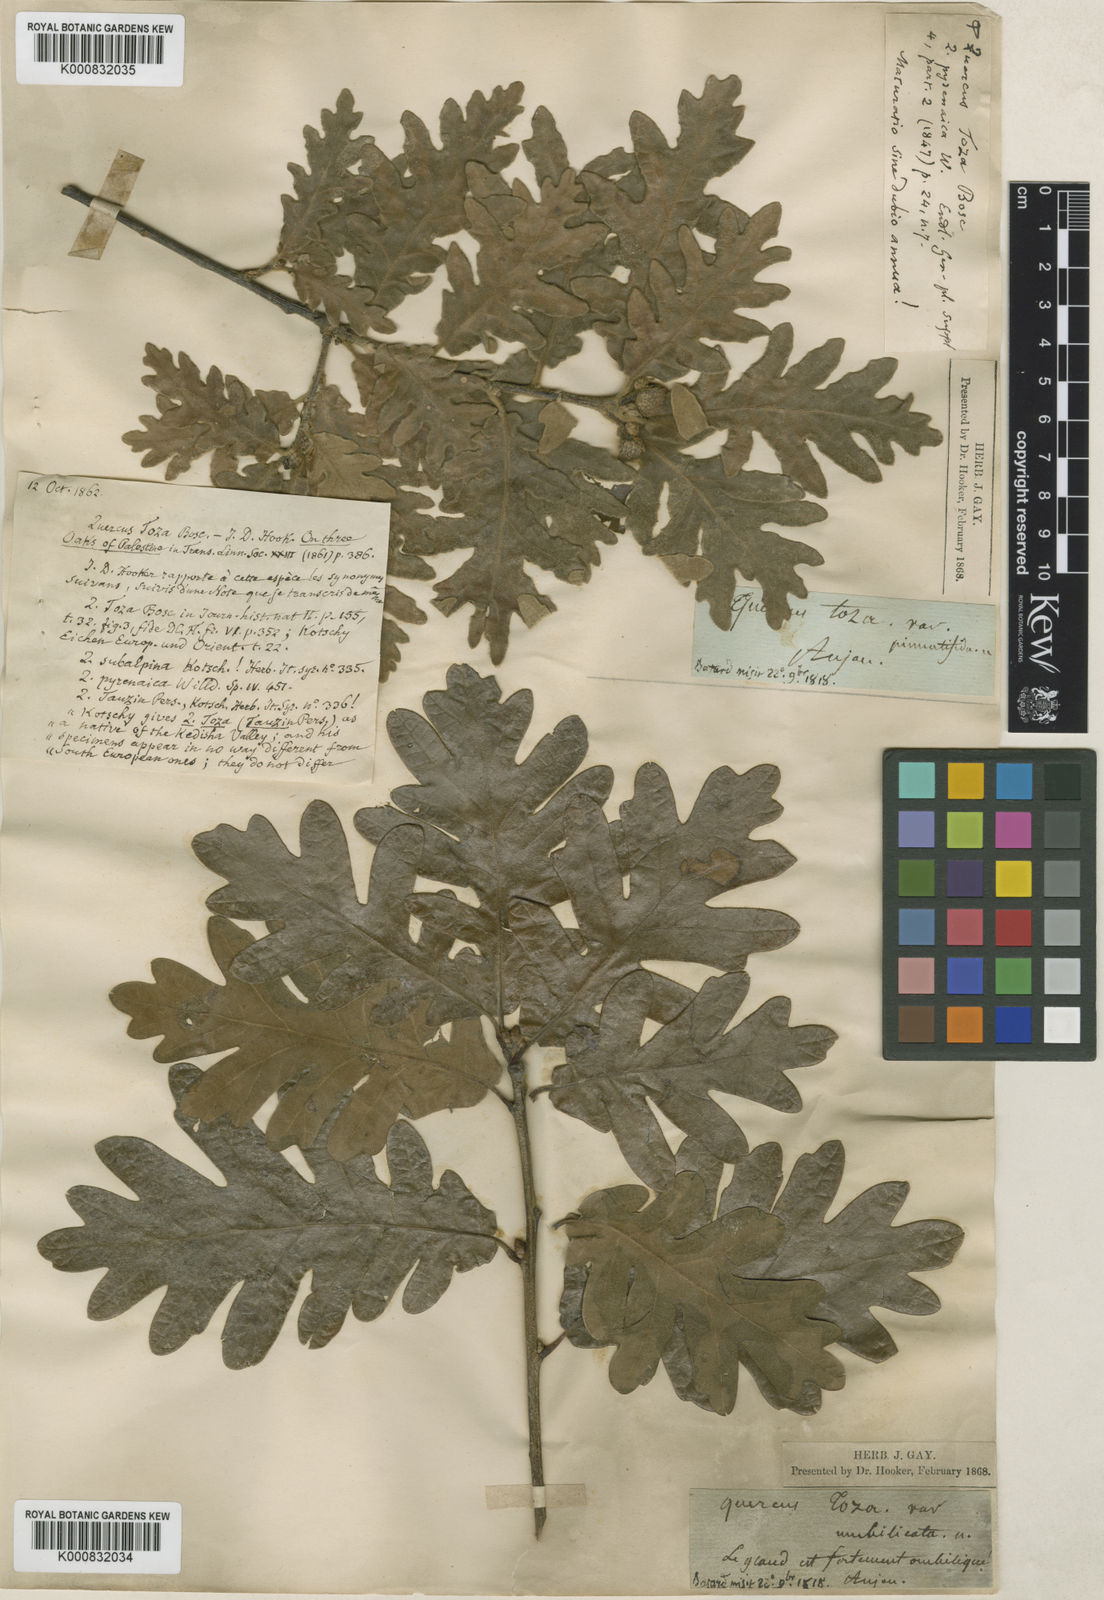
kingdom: Plantae
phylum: Tracheophyta
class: Magnoliopsida
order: Fagales
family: Fagaceae
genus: Quercus
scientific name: Quercus pyrenaica
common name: Pyrenean oak
